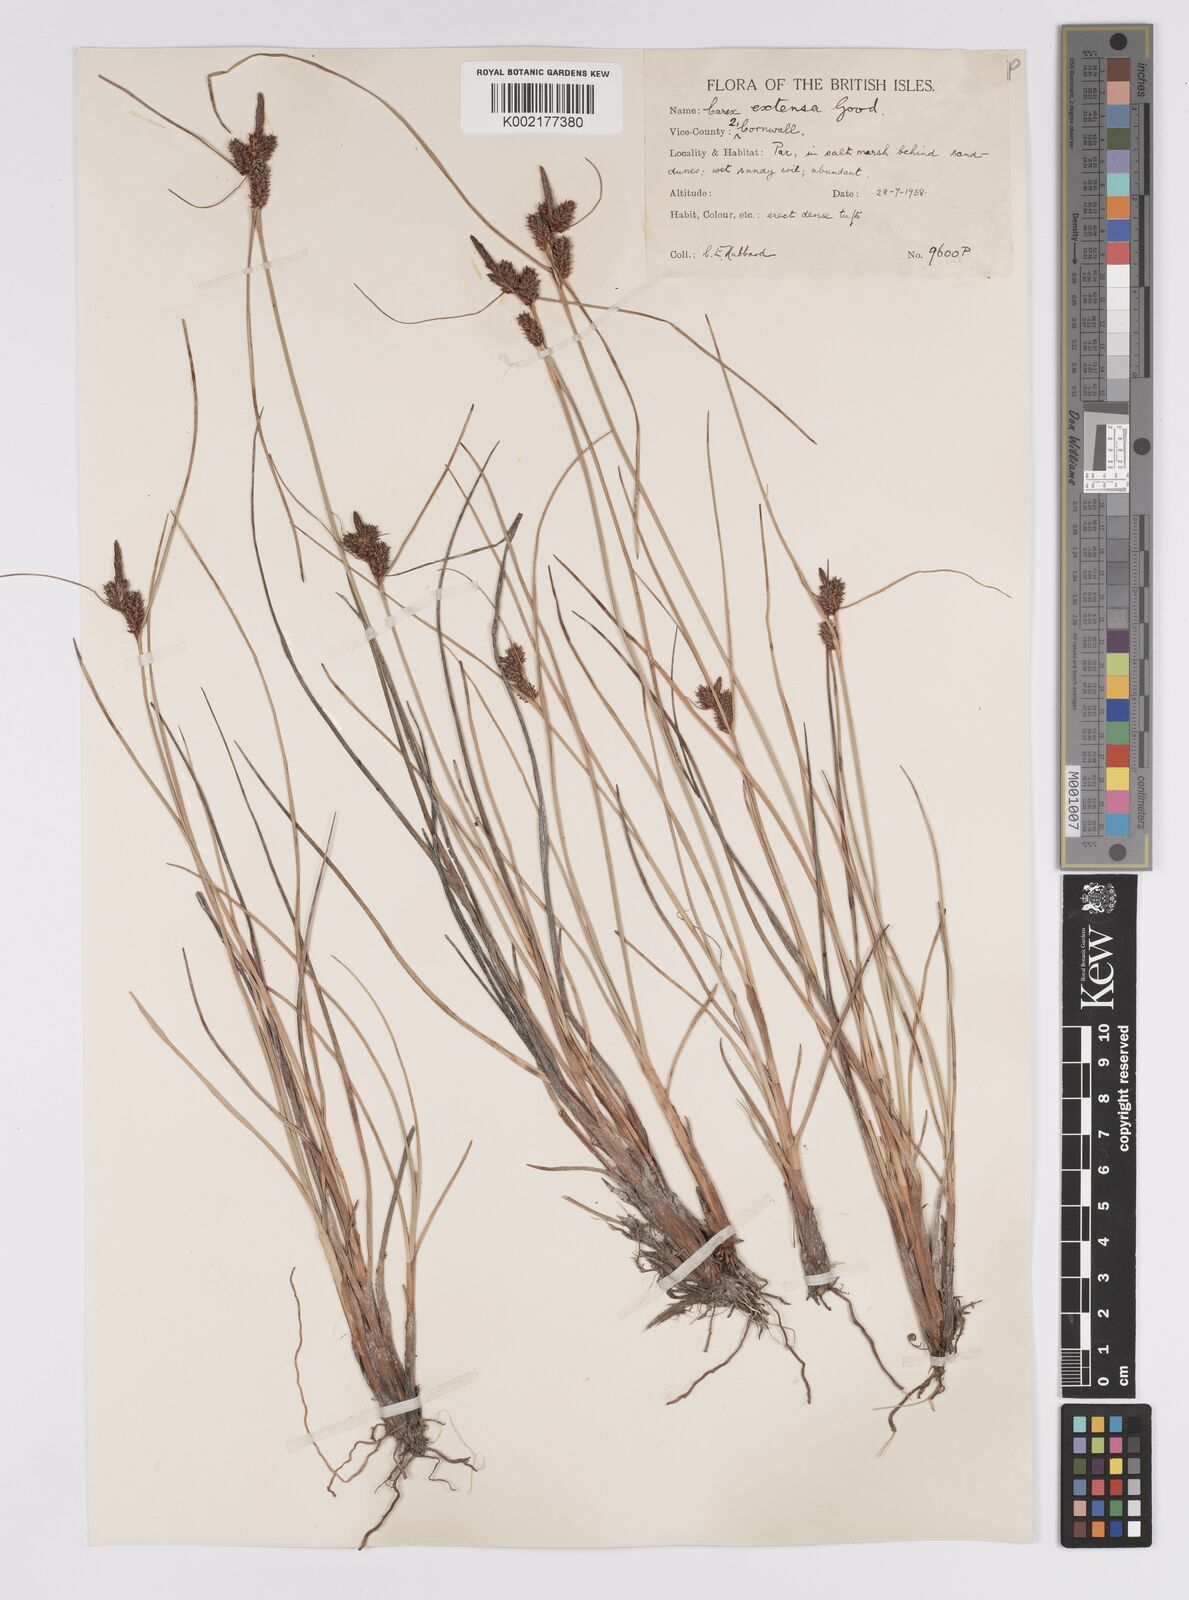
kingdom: Plantae
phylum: Tracheophyta
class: Liliopsida
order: Poales
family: Cyperaceae
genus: Carex
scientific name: Carex extensa
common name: Long-bracted sedge
